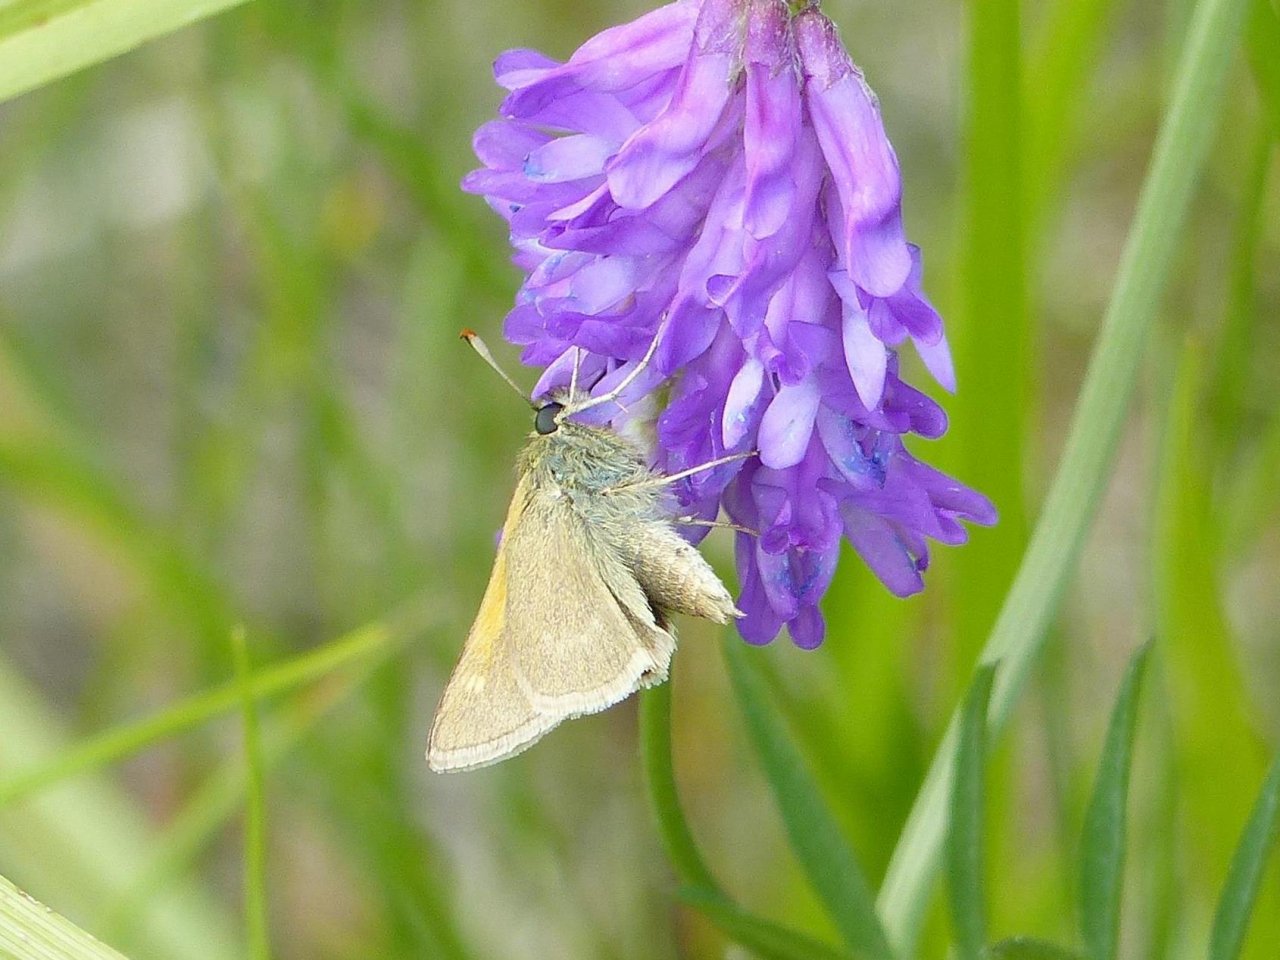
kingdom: Animalia
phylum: Arthropoda
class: Insecta
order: Lepidoptera
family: Hesperiidae
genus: Polites
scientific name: Polites themistocles
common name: Tawny-edged Skipper
